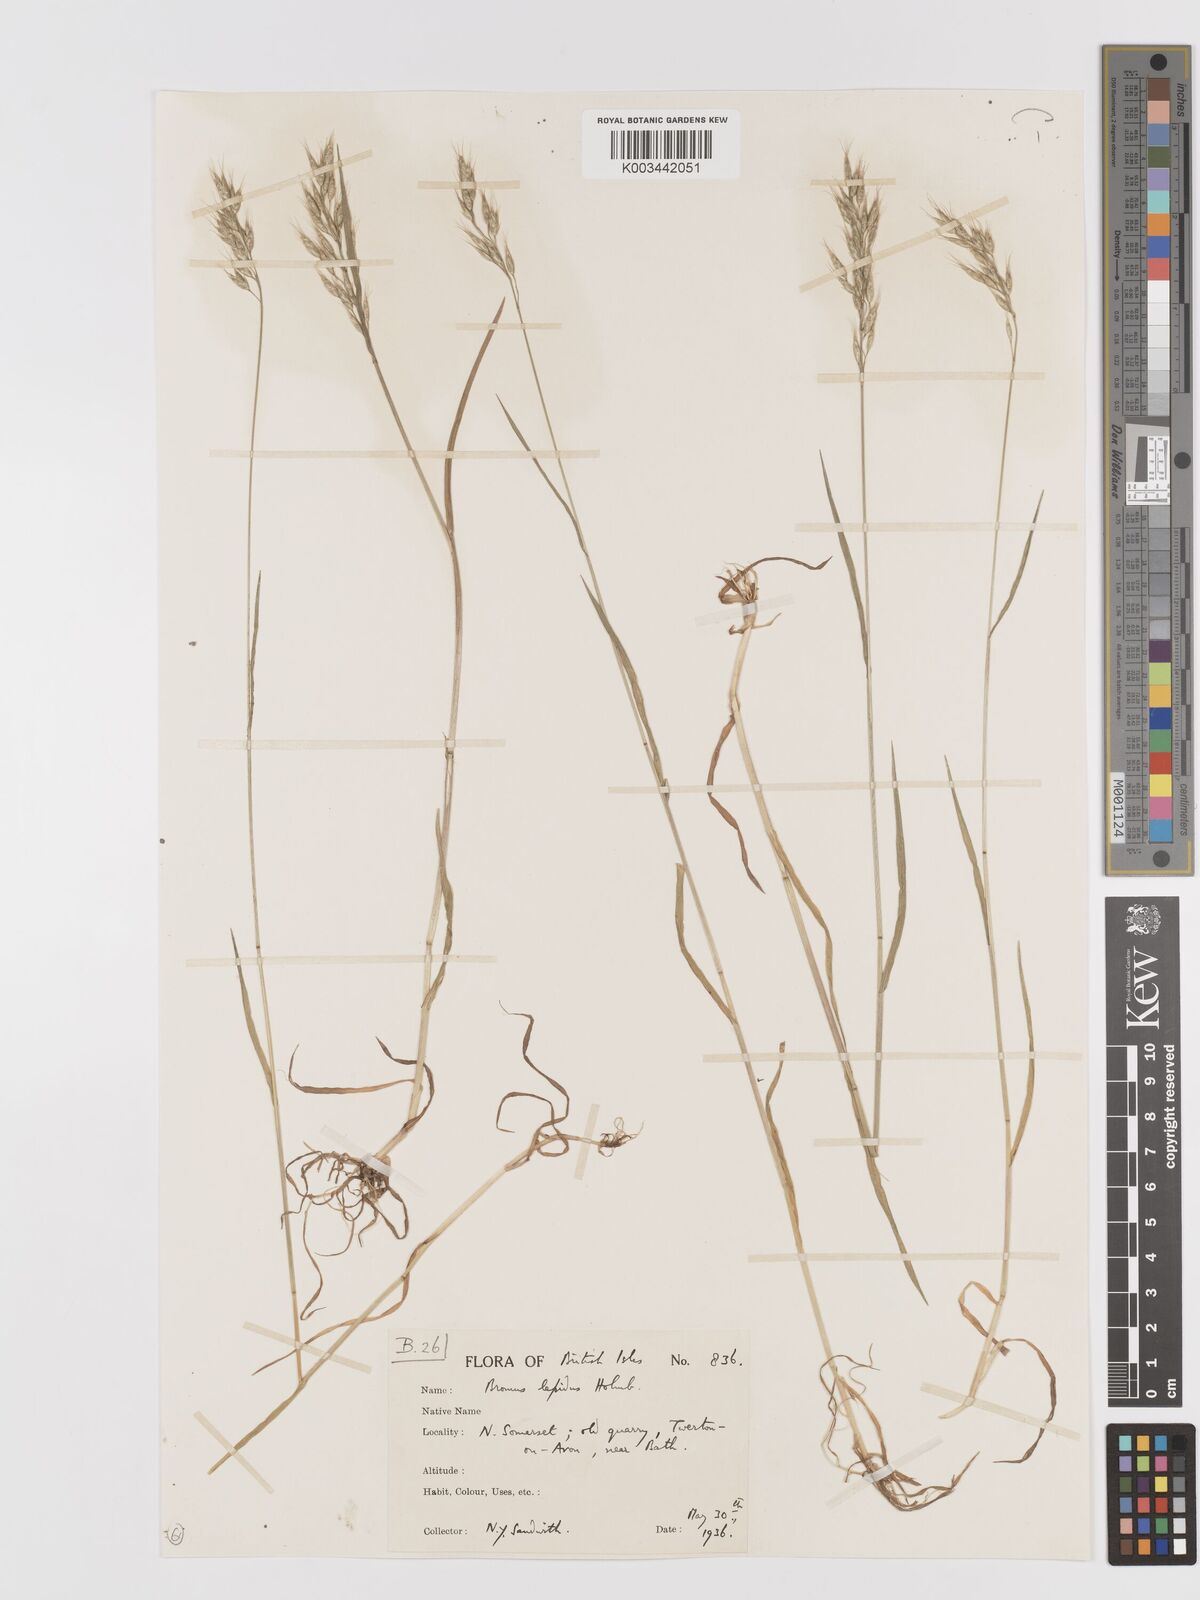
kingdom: Plantae
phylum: Tracheophyta
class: Liliopsida
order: Poales
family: Poaceae
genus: Bromus
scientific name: Bromus lepidus
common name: Slender soft-brome
